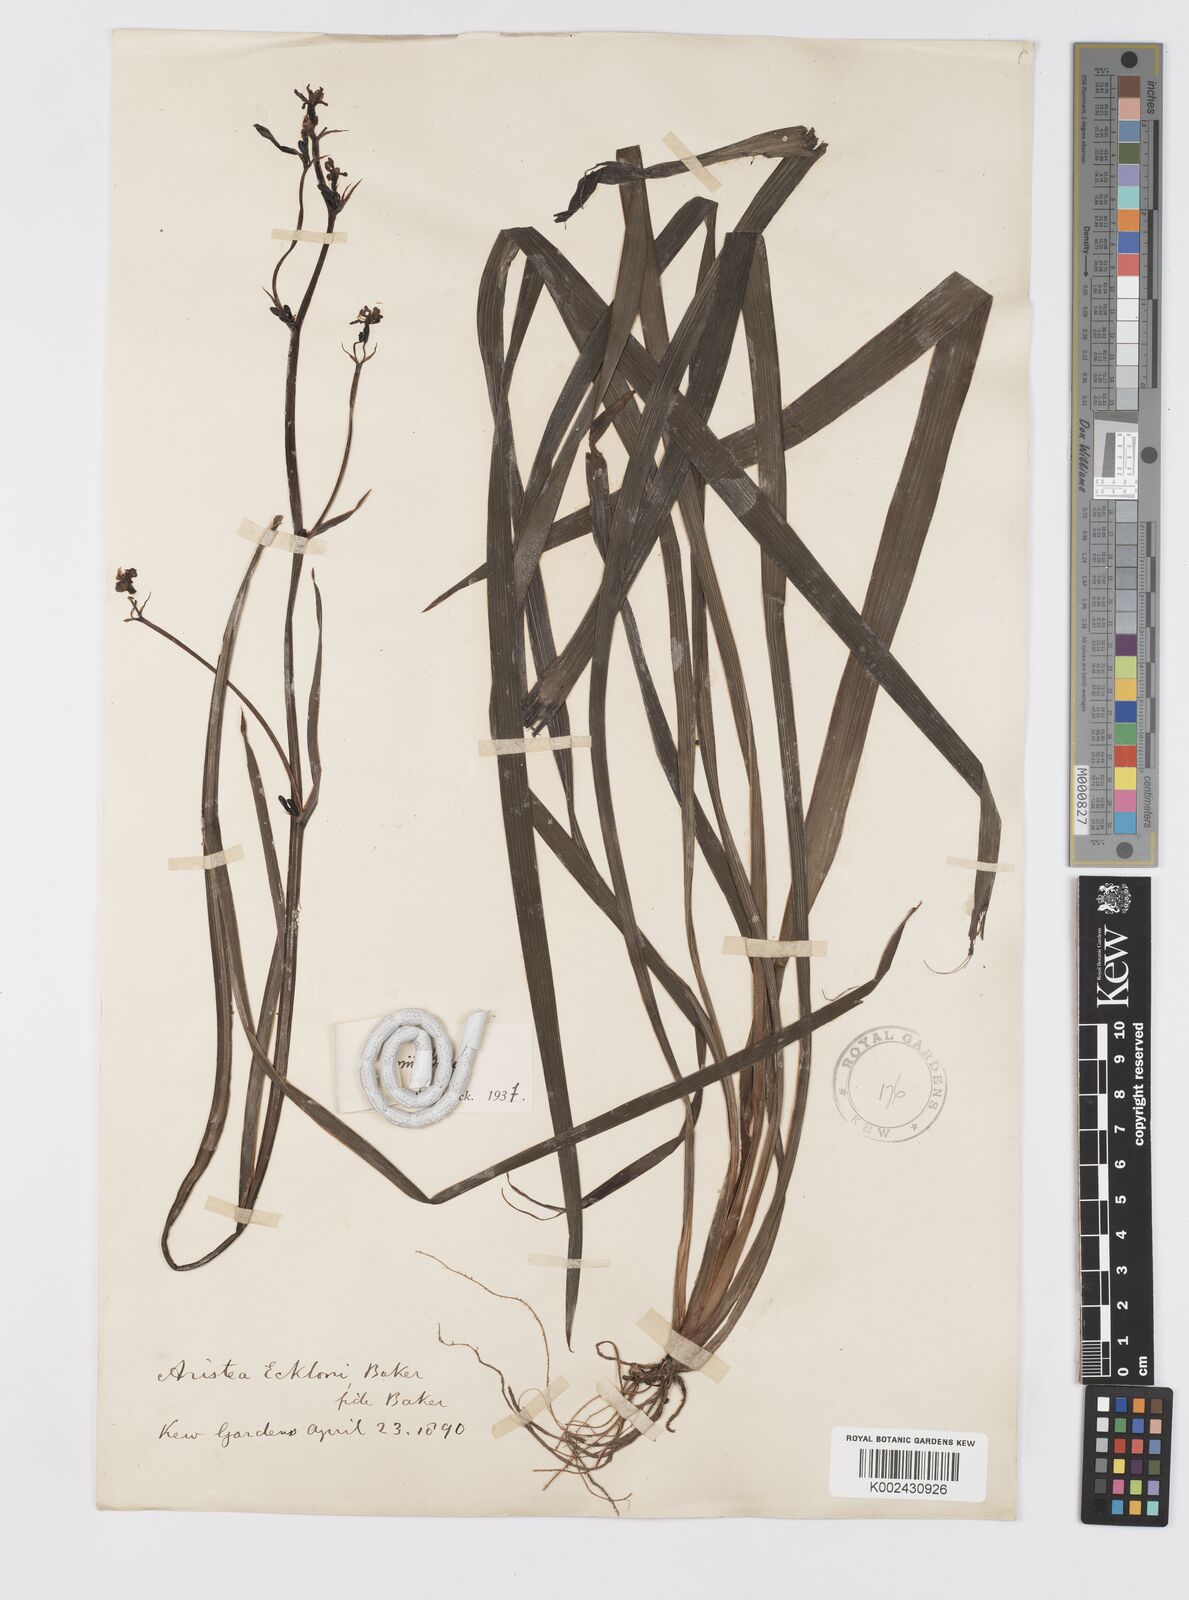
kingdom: Plantae
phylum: Tracheophyta
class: Liliopsida
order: Asparagales
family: Iridaceae
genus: Aristea
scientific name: Aristea ecklonii
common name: Blue corn-lily
